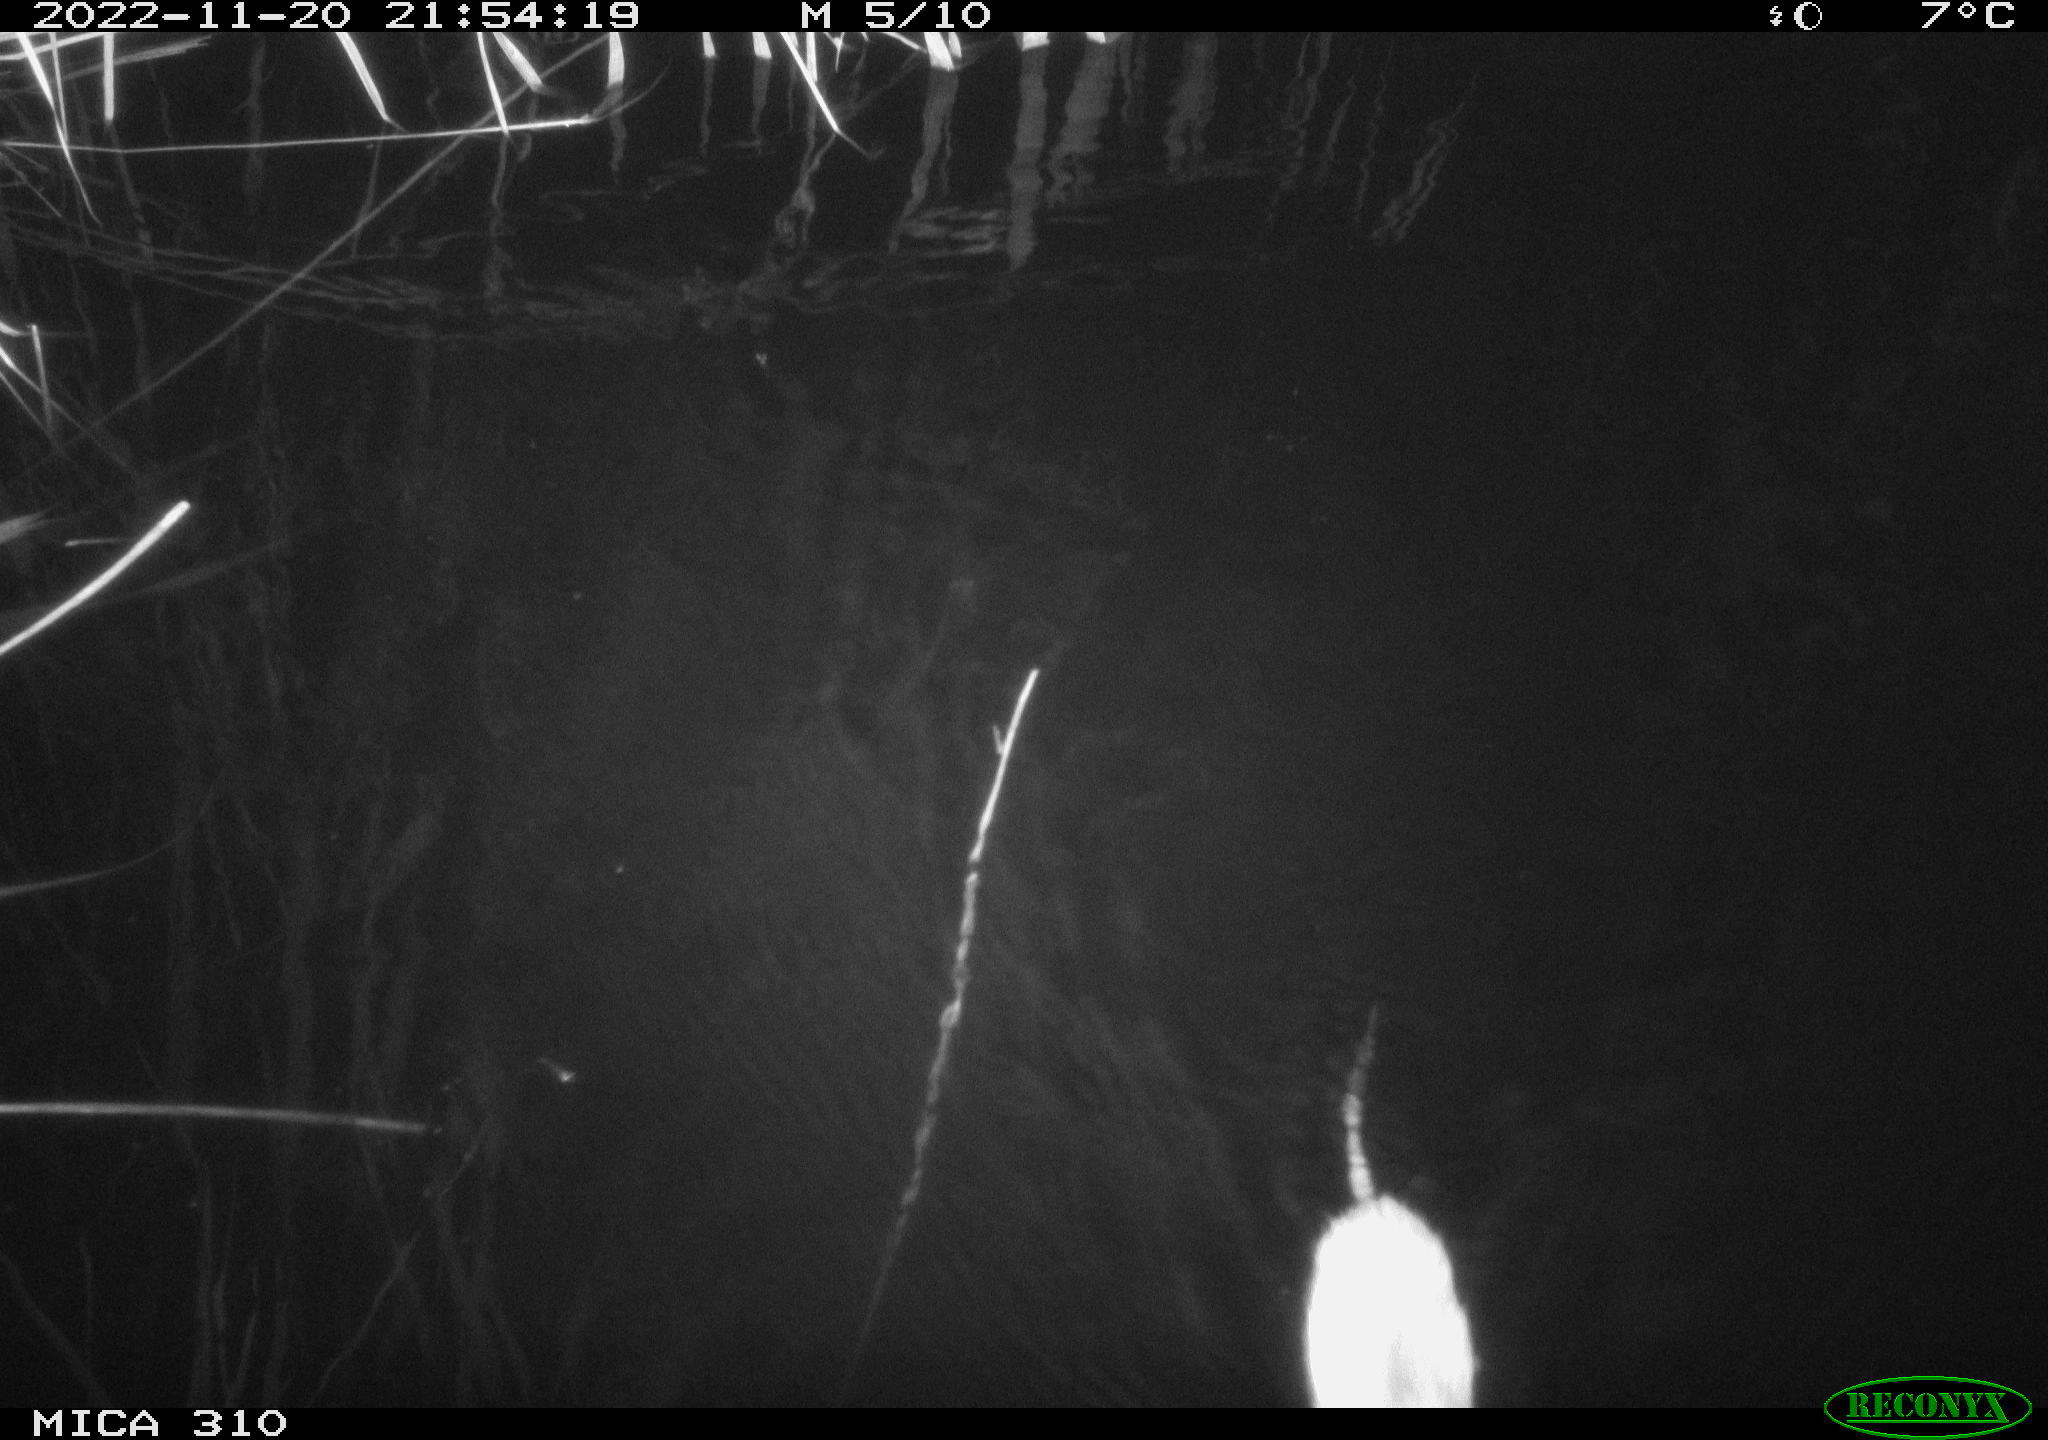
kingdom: Animalia
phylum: Chordata
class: Mammalia
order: Rodentia
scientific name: Rodentia
